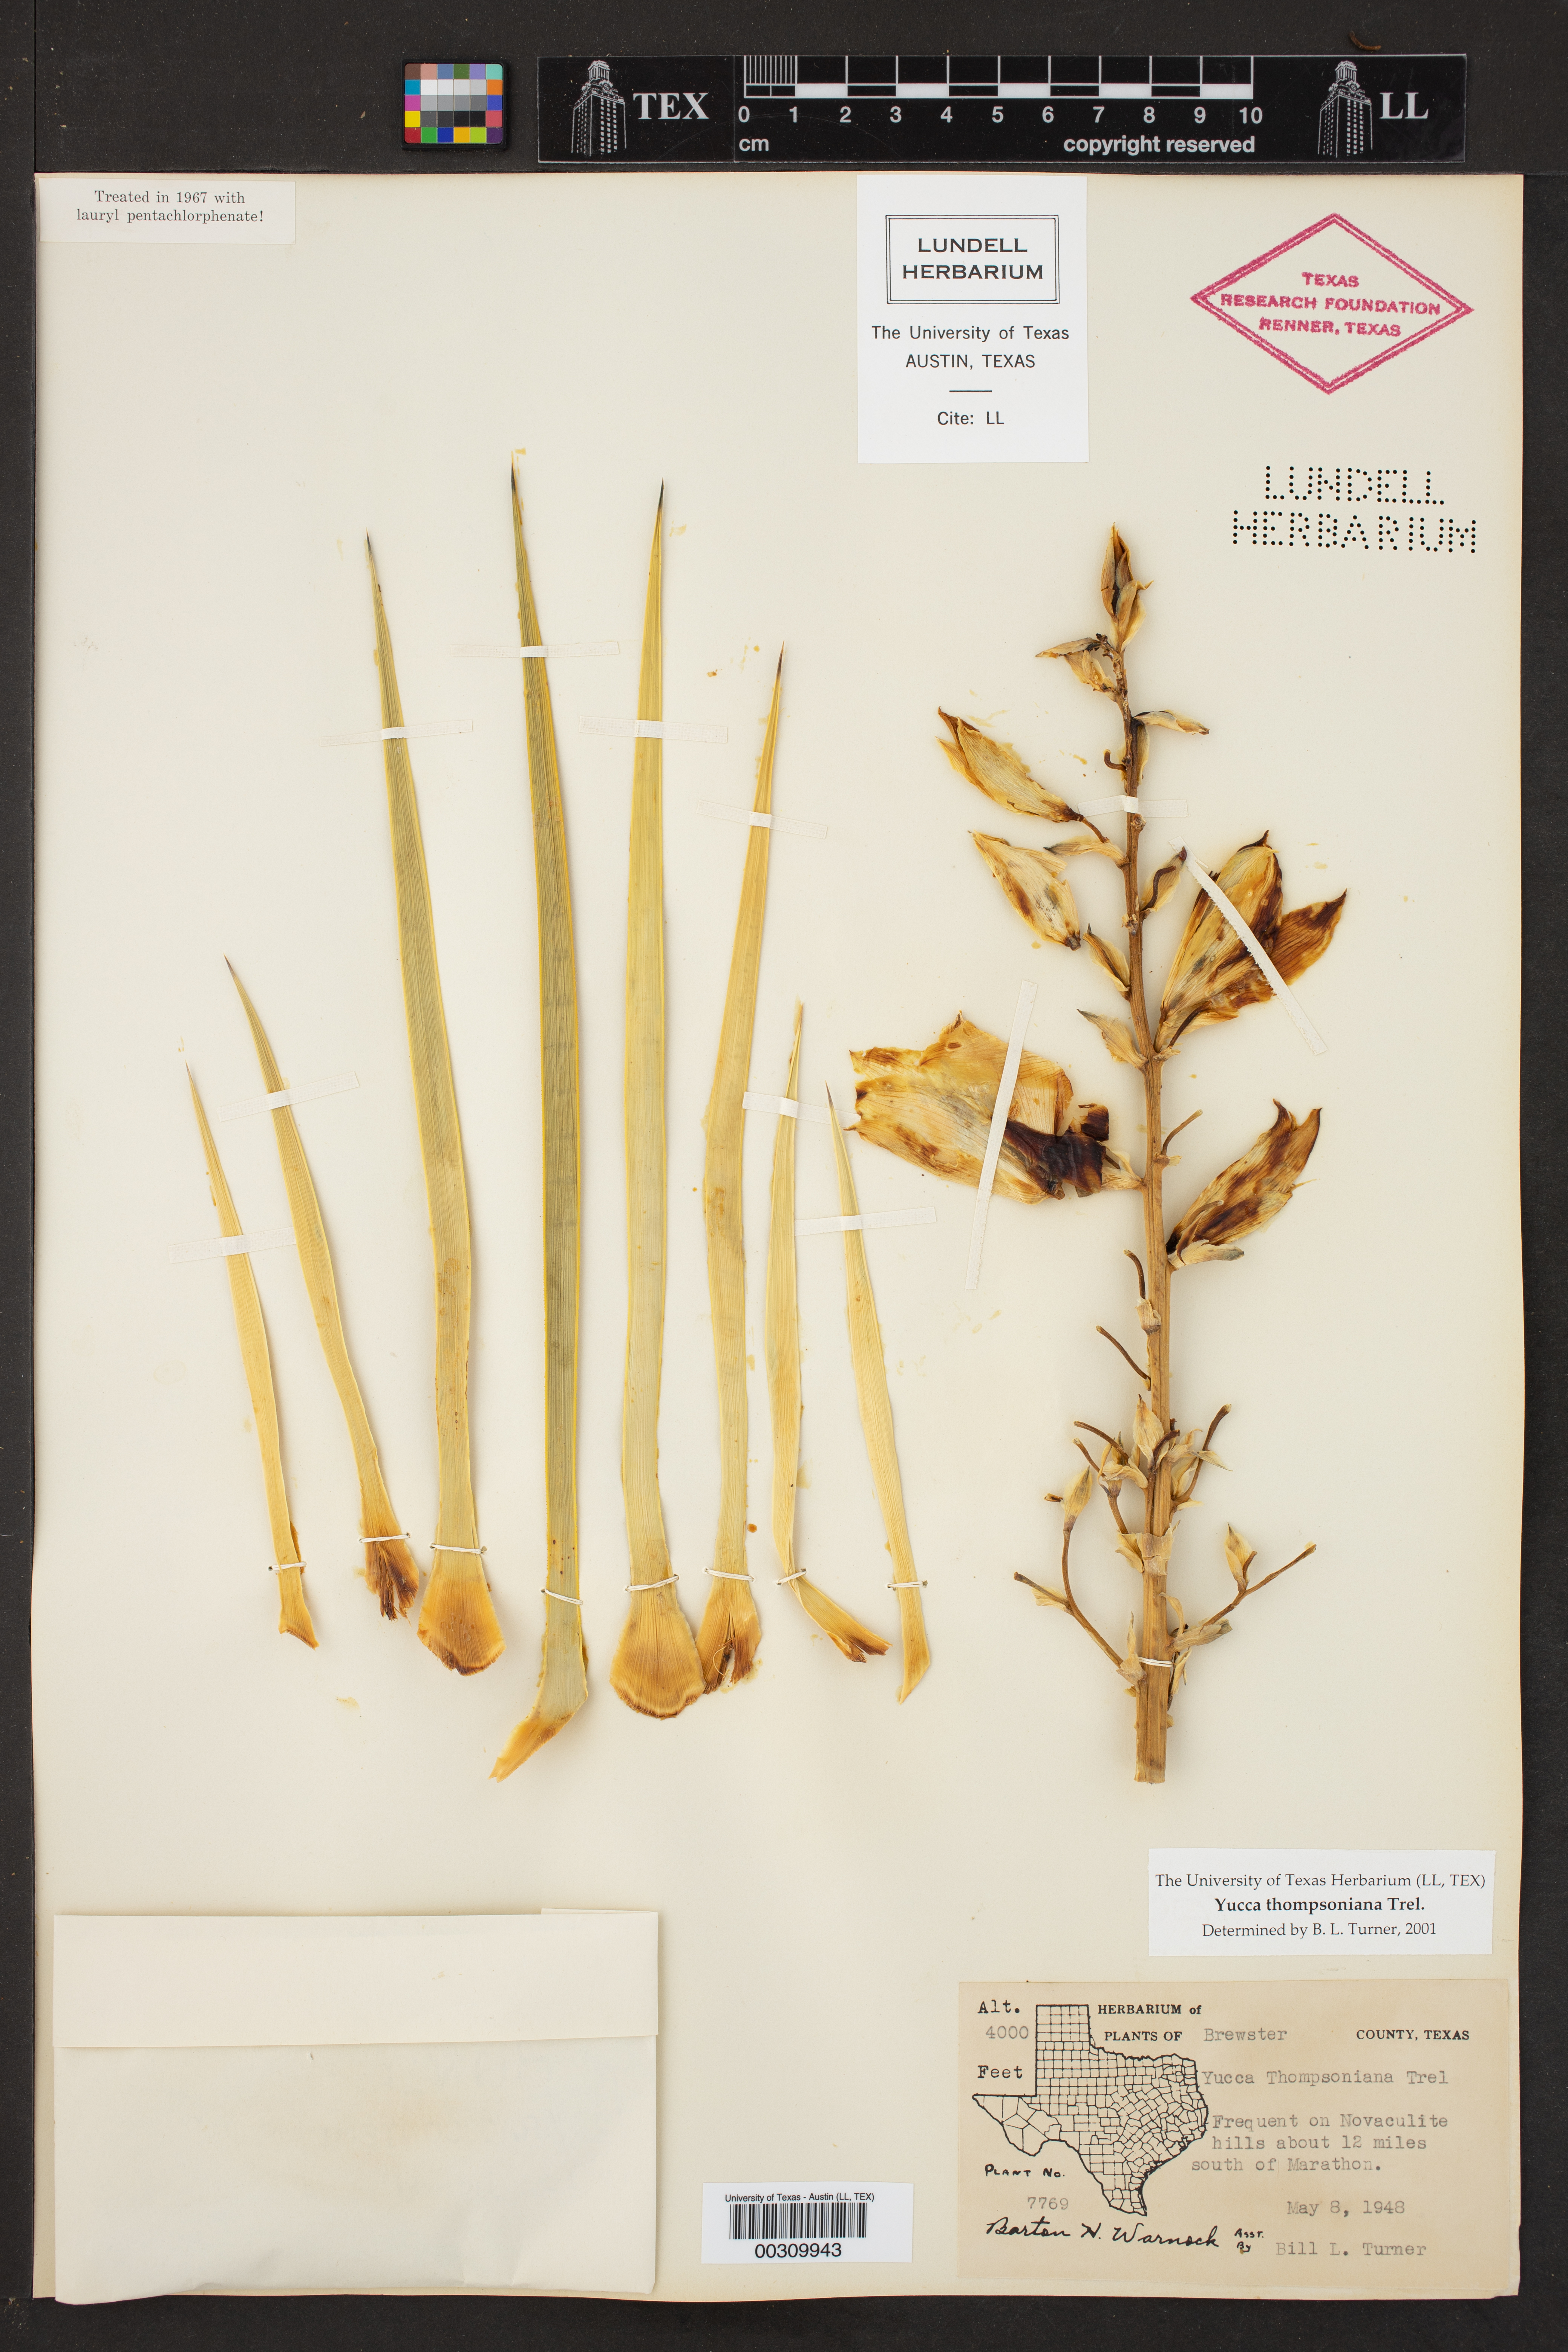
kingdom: Plantae
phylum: Tracheophyta
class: Liliopsida
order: Asparagales
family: Asparagaceae
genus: Yucca
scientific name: Yucca thompsoniana
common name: Trans-pecos yucca
